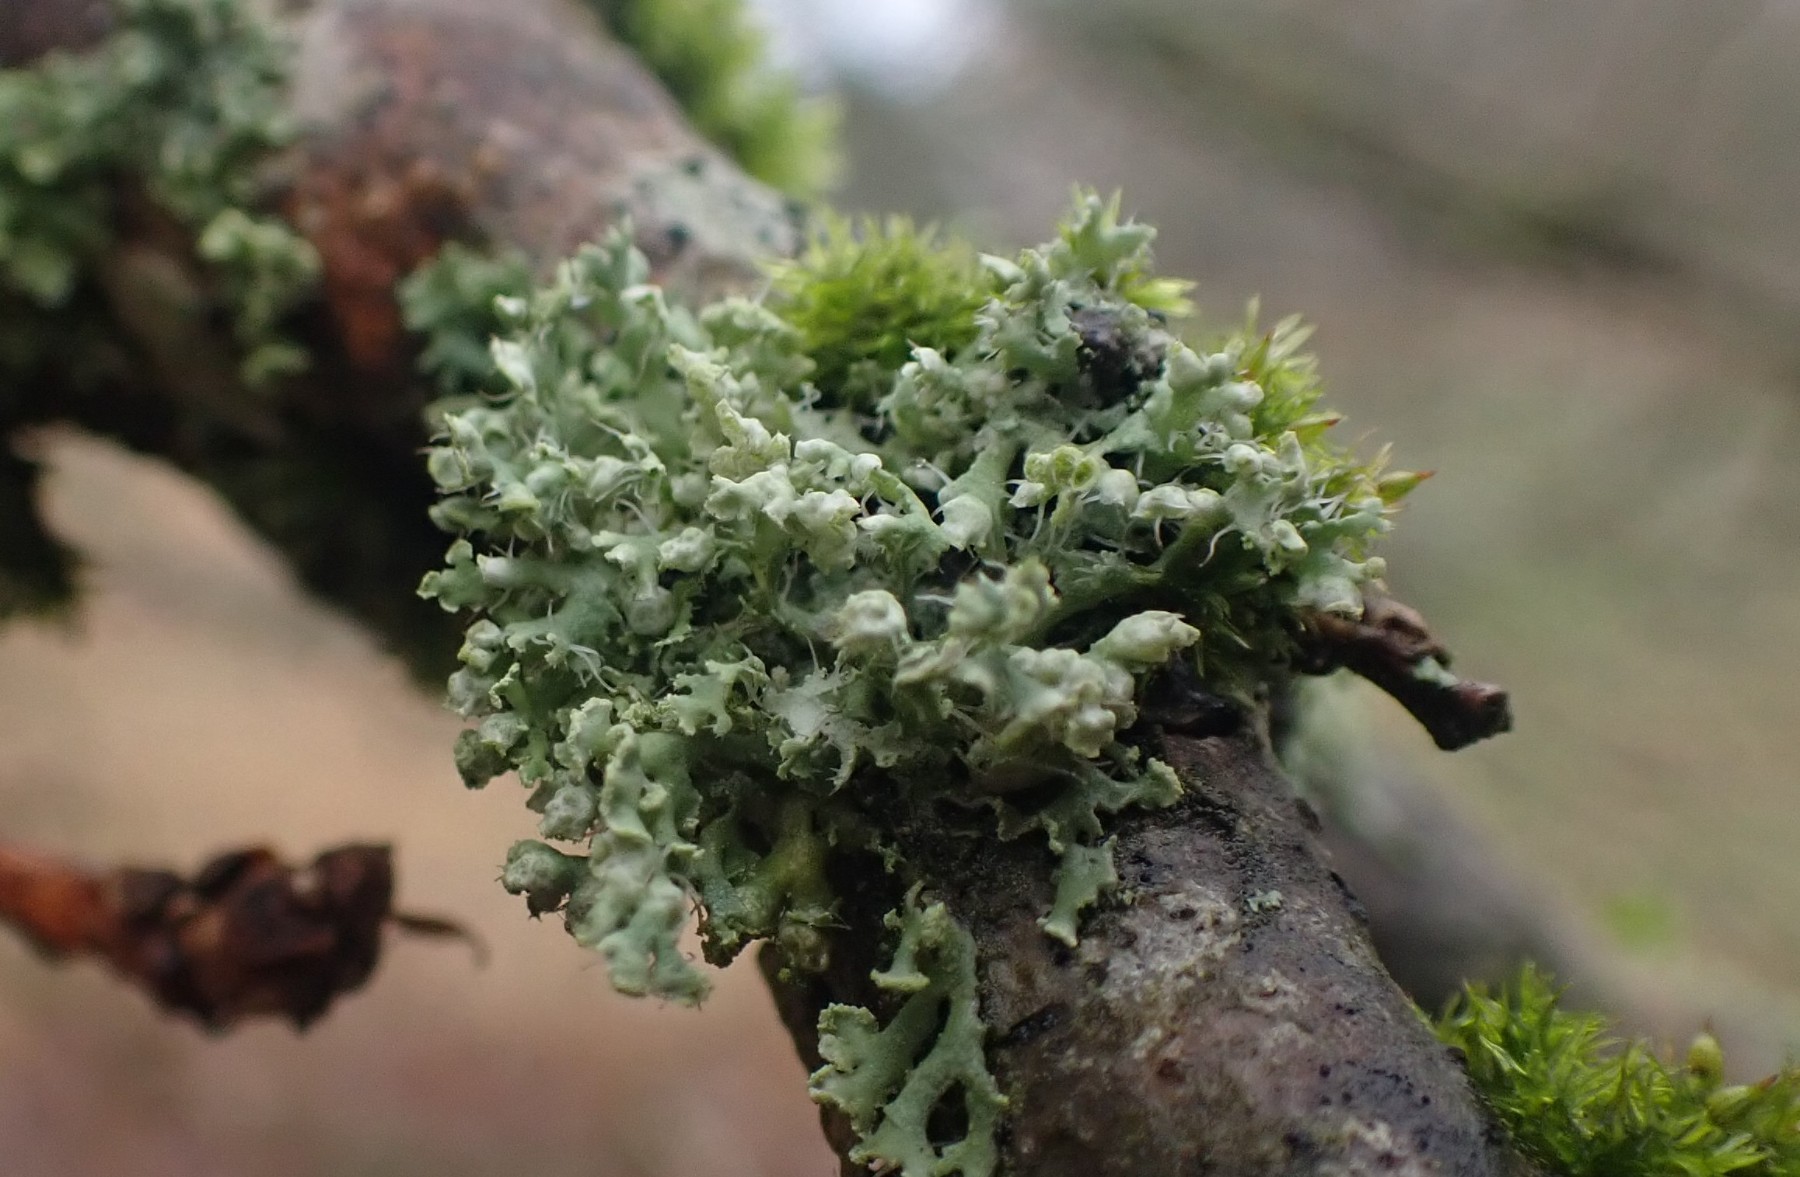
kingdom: Fungi
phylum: Ascomycota
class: Lecanoromycetes
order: Caliciales
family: Physciaceae
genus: Physcia
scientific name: Physcia adscendens
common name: hætte-rosetlav
